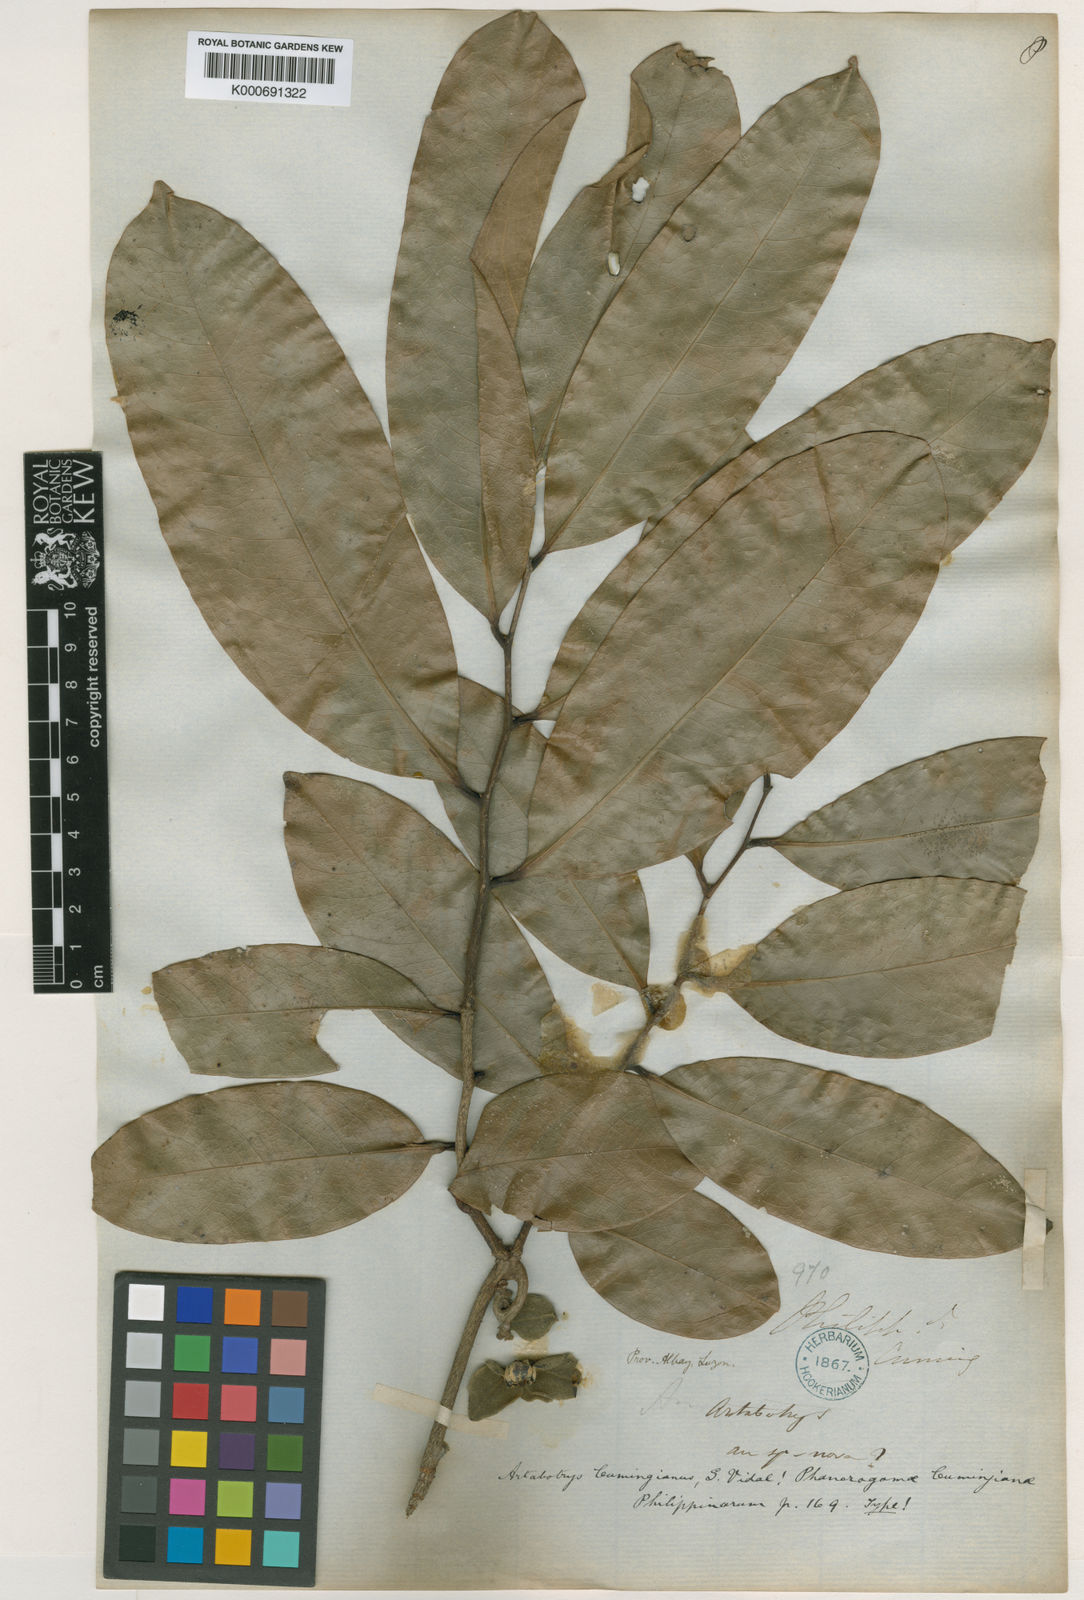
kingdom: Plantae
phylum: Tracheophyta
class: Magnoliopsida
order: Magnoliales
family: Annonaceae
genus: Artabotrys
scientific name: Artabotrys cumingianus
